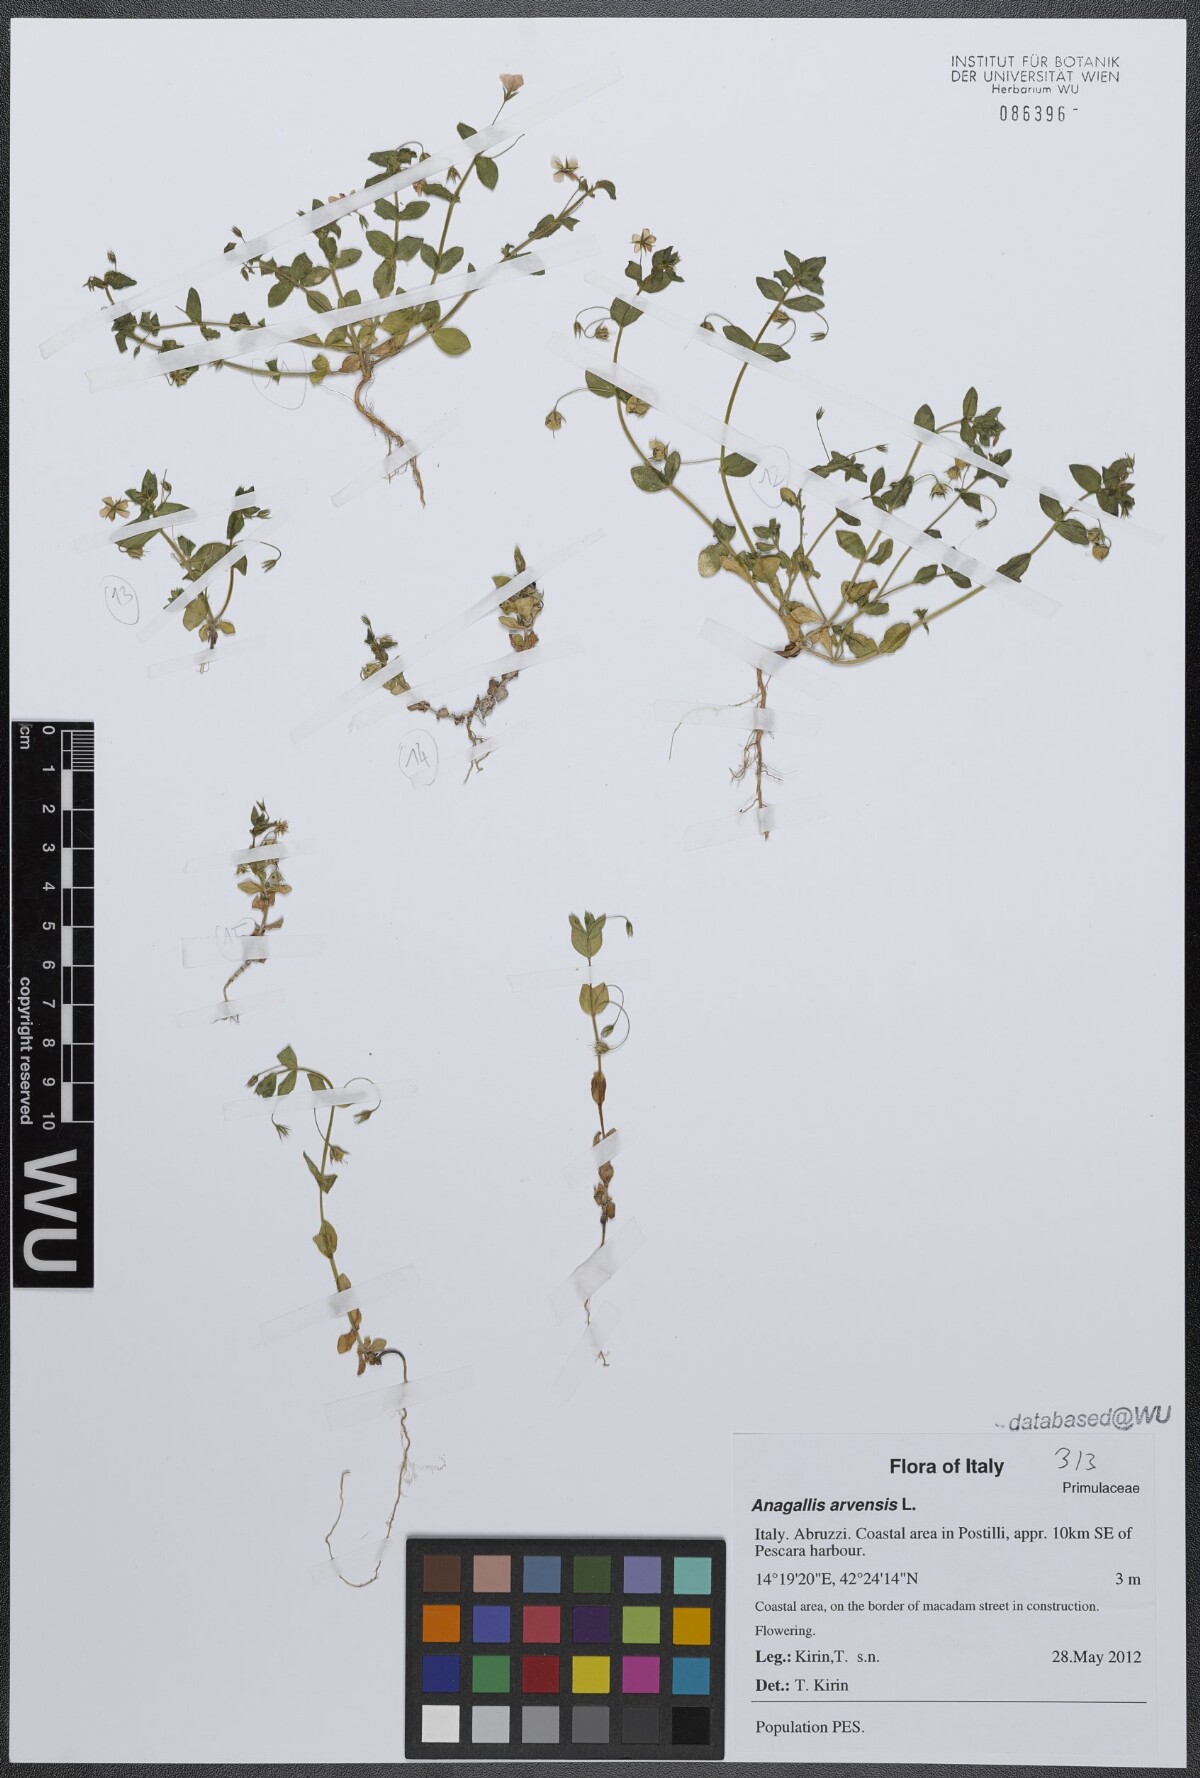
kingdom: Plantae
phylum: Tracheophyta
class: Magnoliopsida
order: Ericales
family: Primulaceae
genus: Lysimachia
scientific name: Lysimachia arvensis
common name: Scarlet pimpernel
